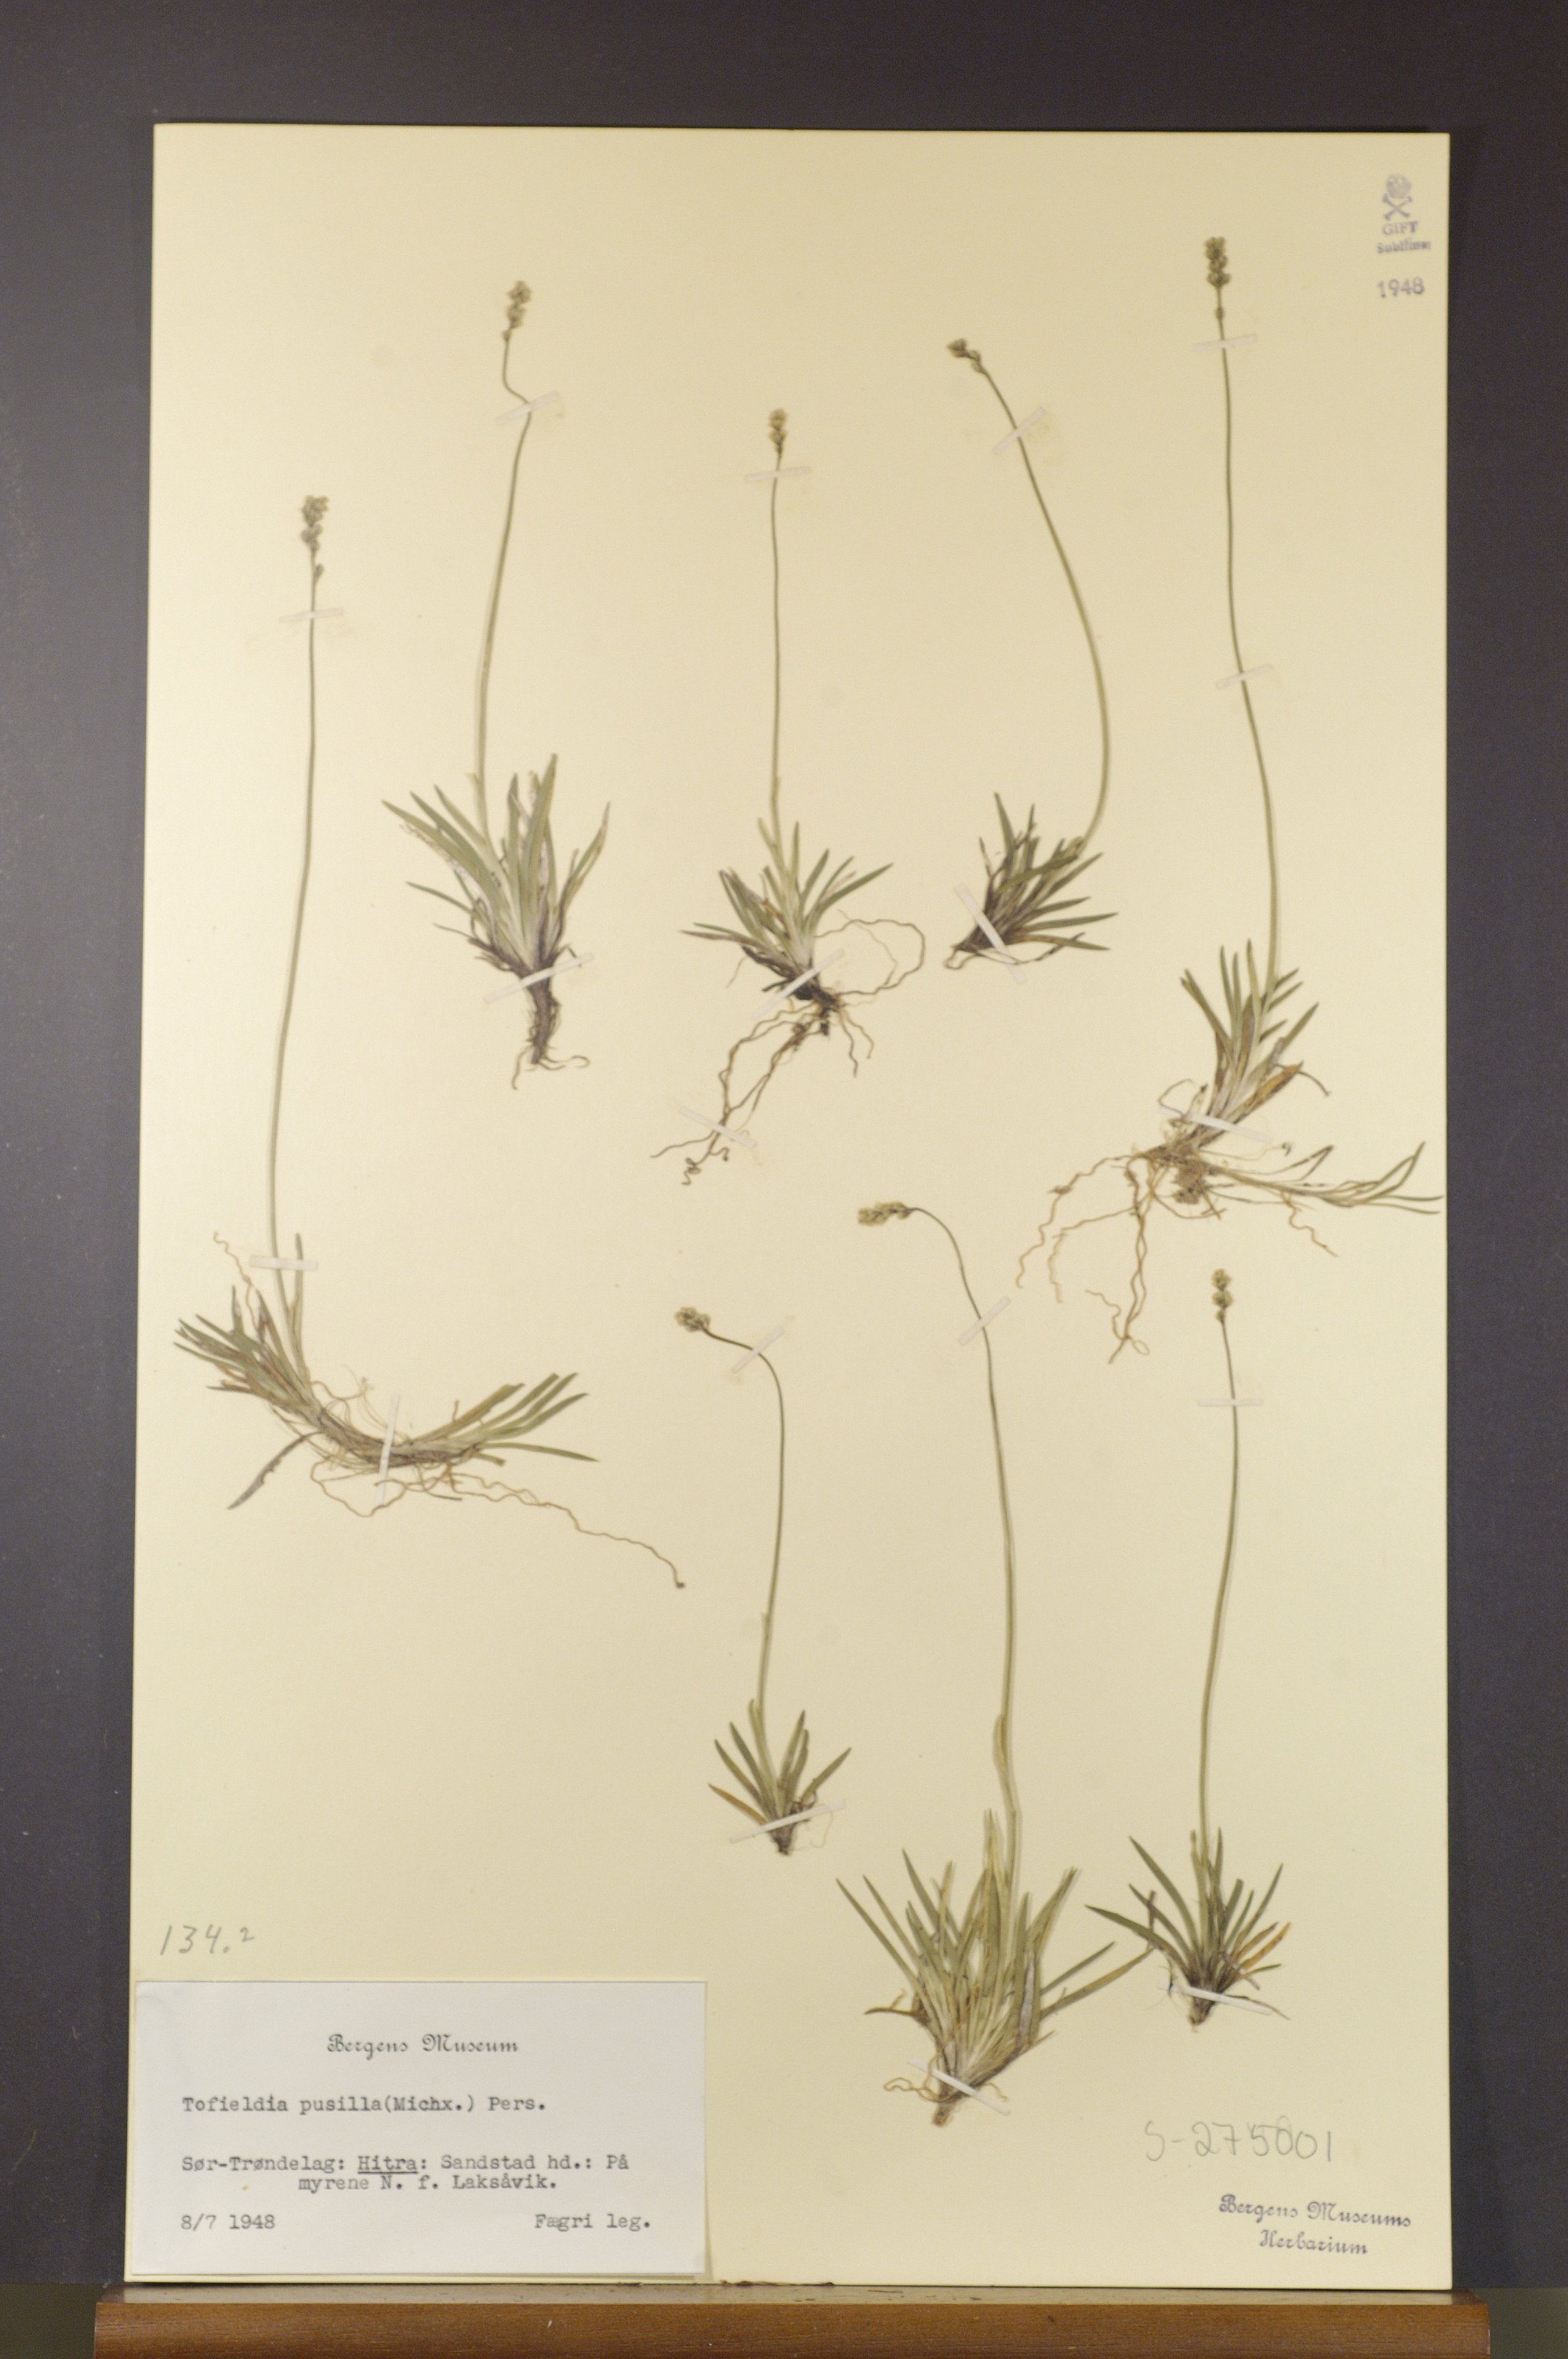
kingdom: Plantae
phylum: Tracheophyta
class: Liliopsida
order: Alismatales
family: Tofieldiaceae
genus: Tofieldia
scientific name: Tofieldia pusilla
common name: Scottish false asphodel
